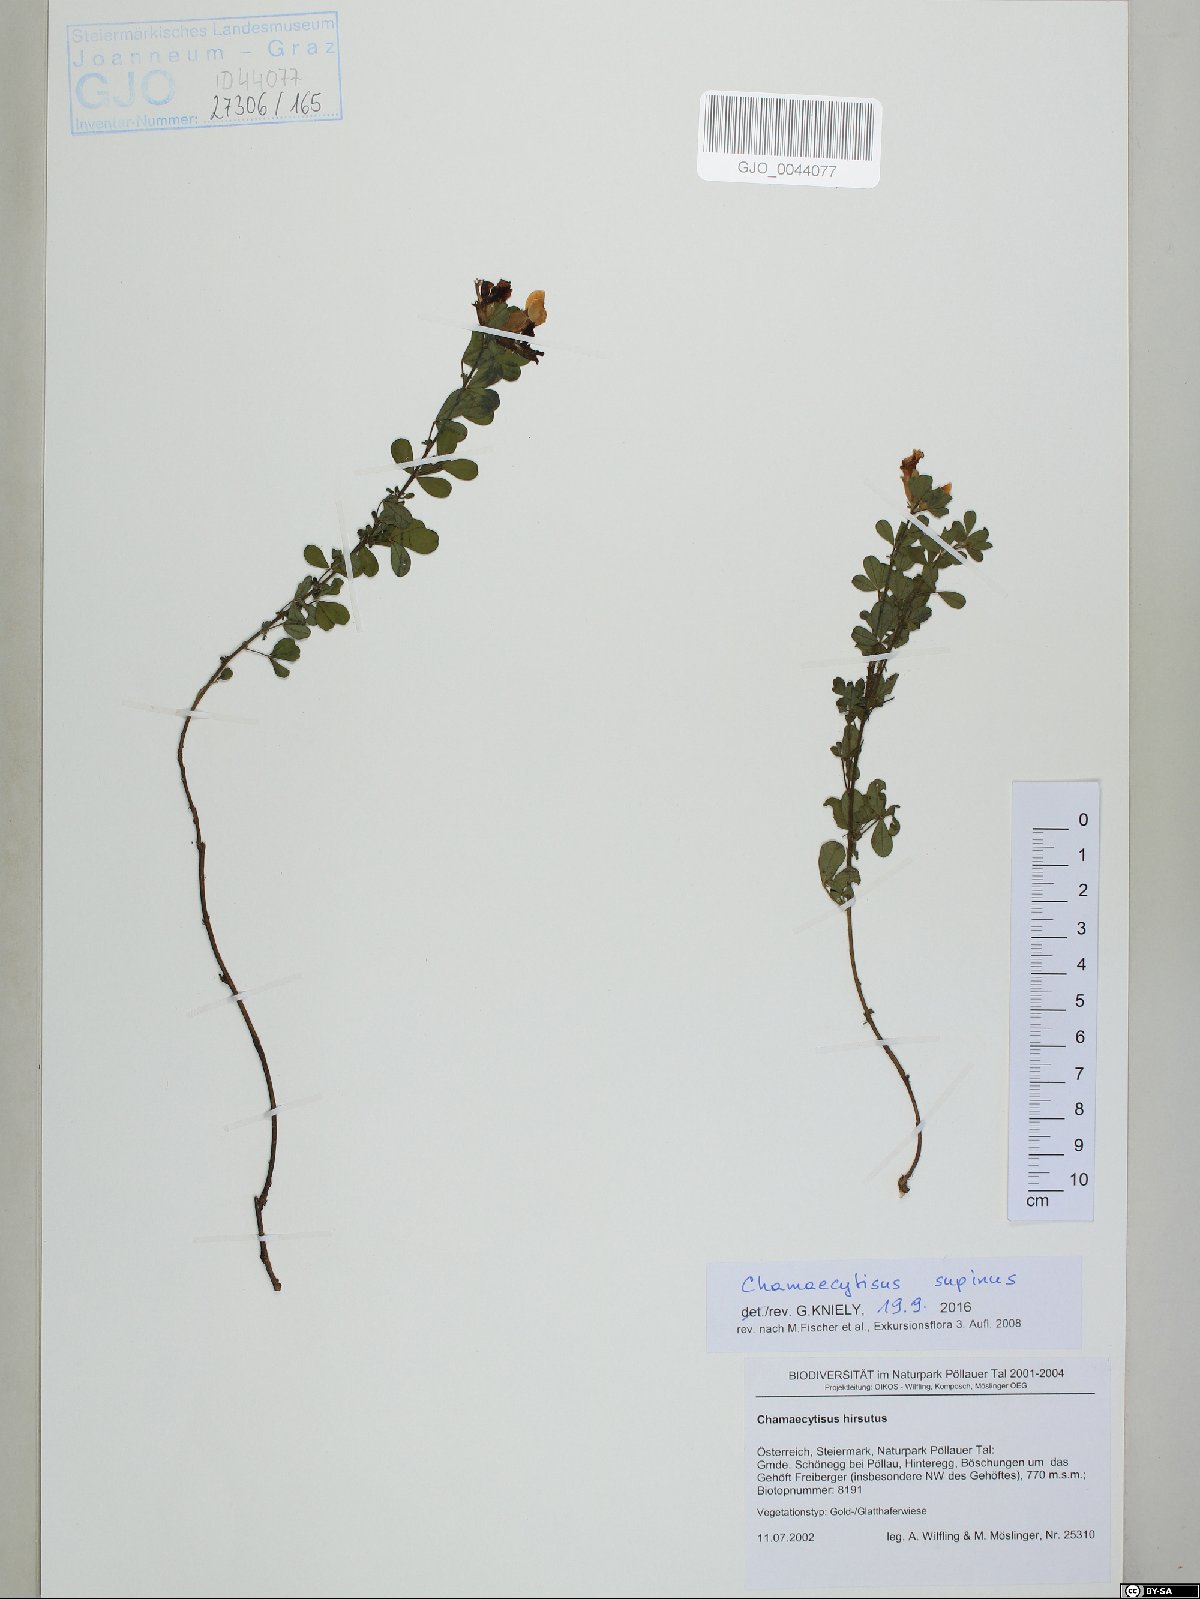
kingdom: Plantae
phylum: Tracheophyta
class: Magnoliopsida
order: Fabales
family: Fabaceae
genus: Chamaecytisus
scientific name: Chamaecytisus supinus
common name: Clustered broom
